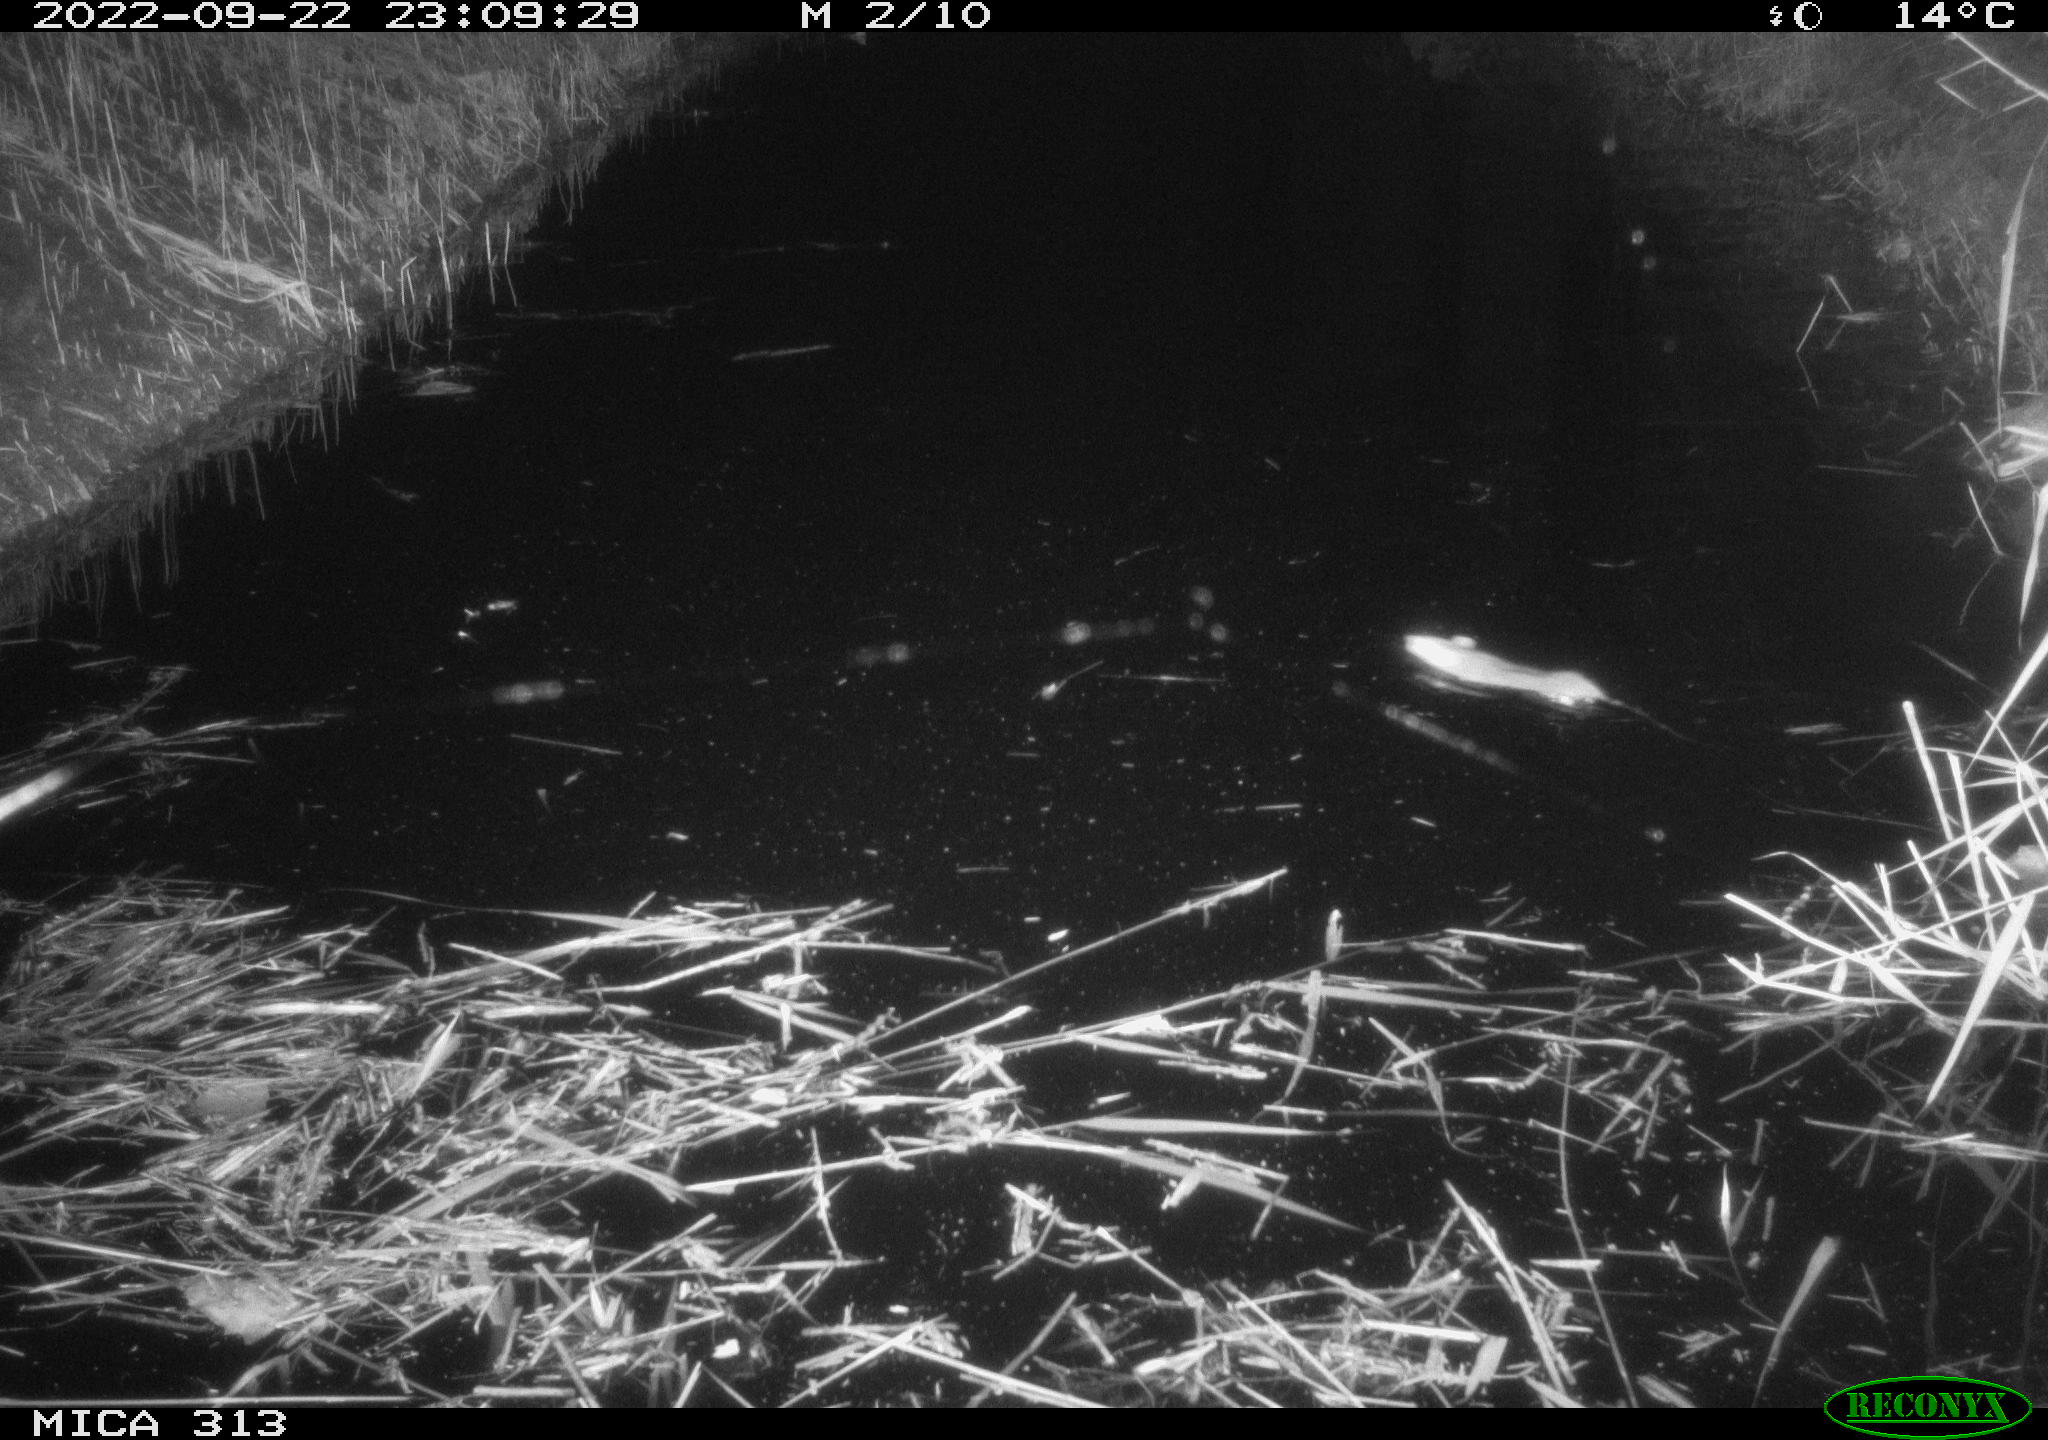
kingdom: Animalia
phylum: Chordata
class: Mammalia
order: Rodentia
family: Muridae
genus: Rattus
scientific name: Rattus norvegicus
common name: Brown rat
